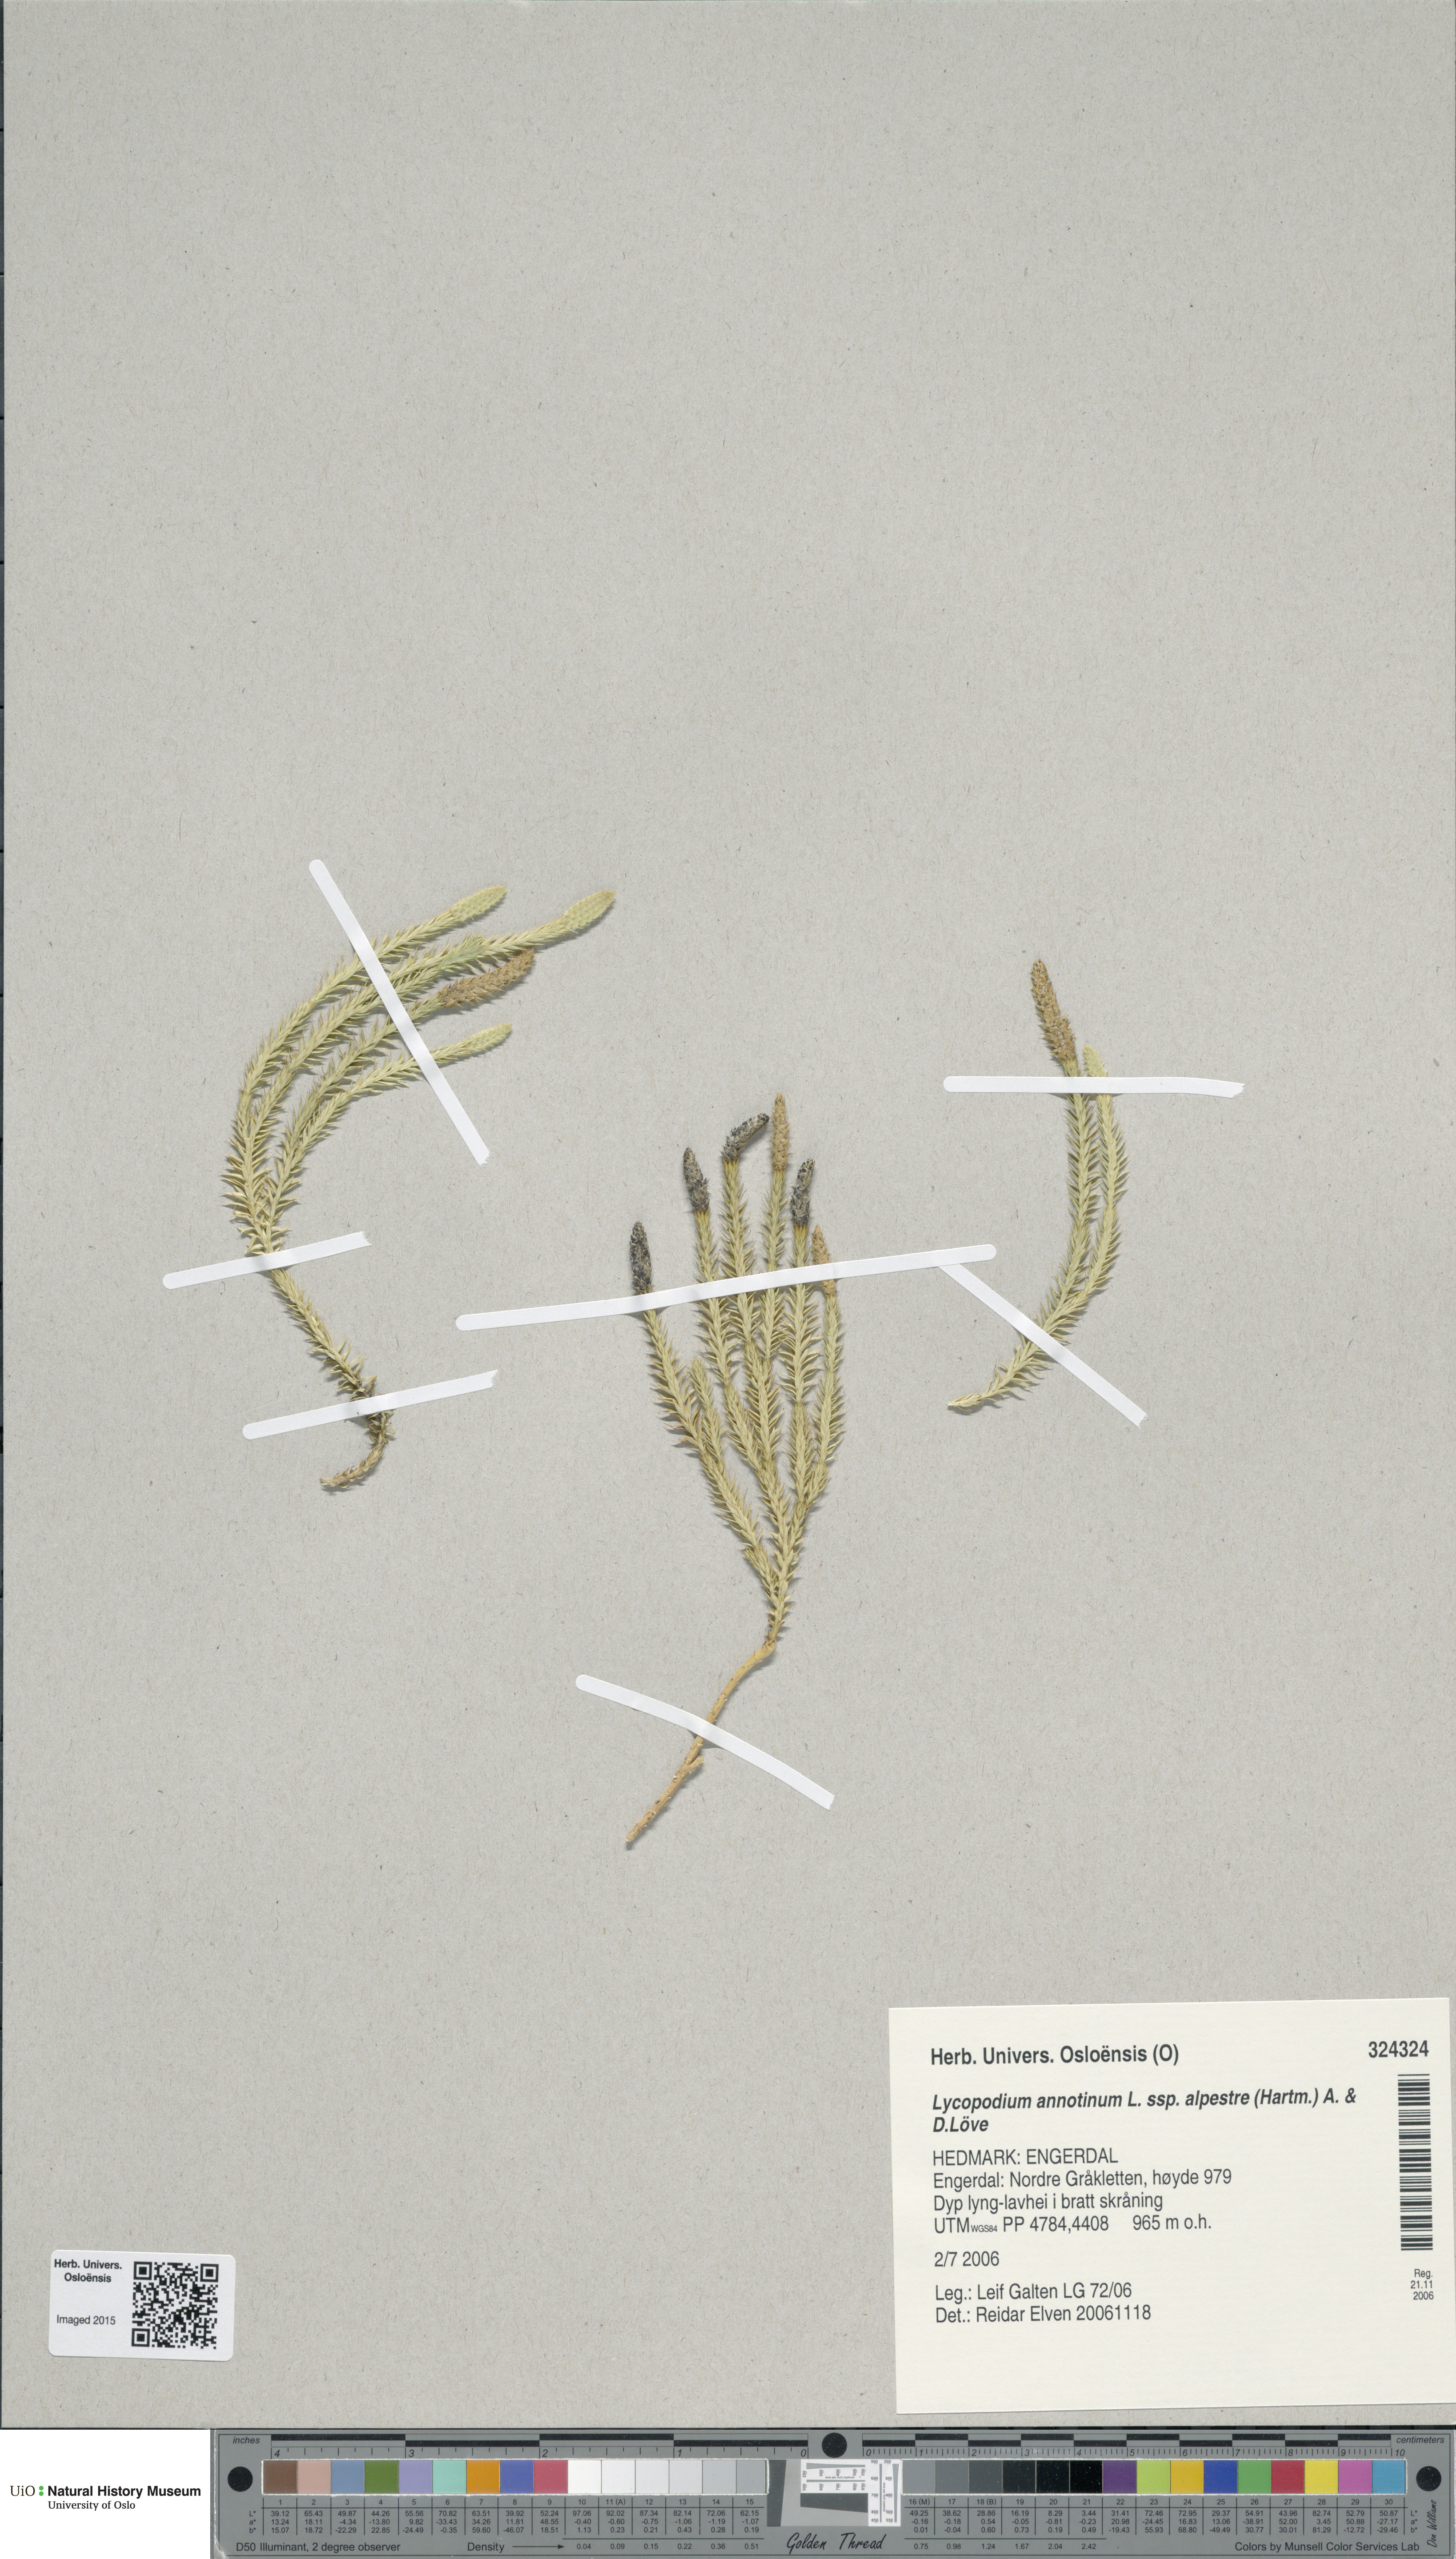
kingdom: Plantae
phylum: Tracheophyta
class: Lycopodiopsida
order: Lycopodiales
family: Lycopodiaceae
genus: Spinulum
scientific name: Spinulum annotinum
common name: Interrupted club-moss
